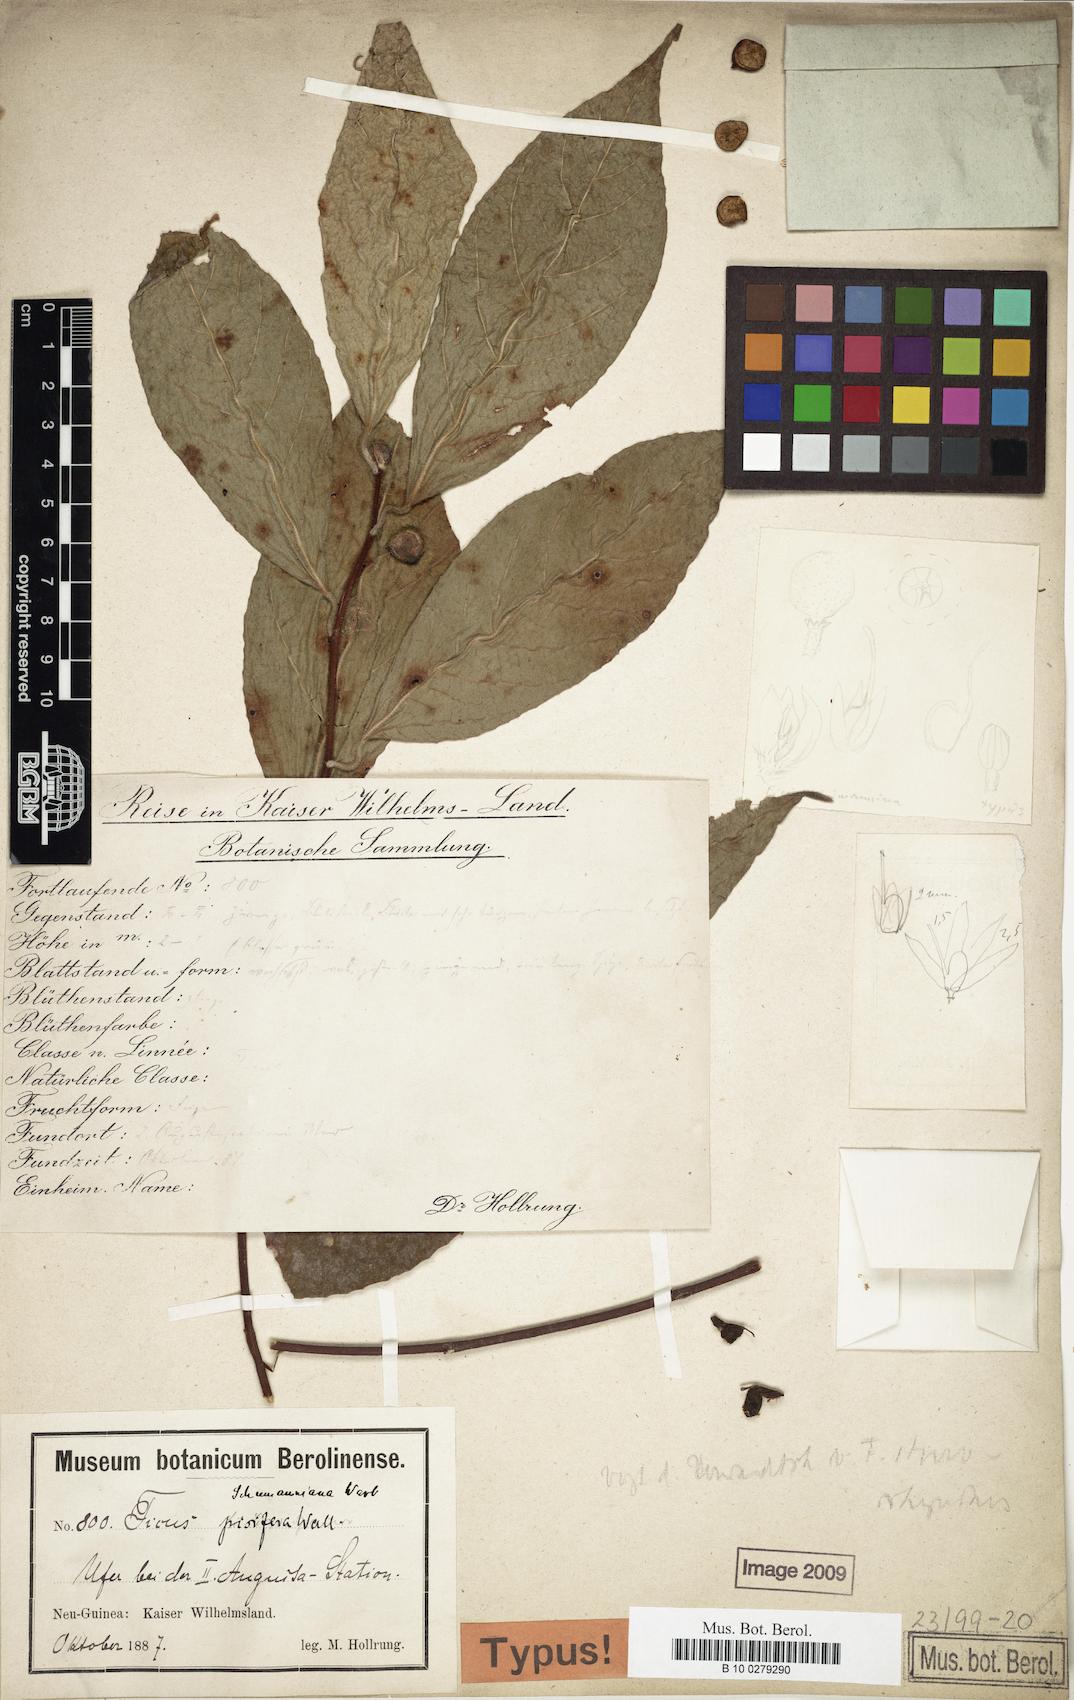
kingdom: Plantae
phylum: Tracheophyta
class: Magnoliopsida
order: Rosales
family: Moraceae
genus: Ficus
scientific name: Ficus schumanniana
